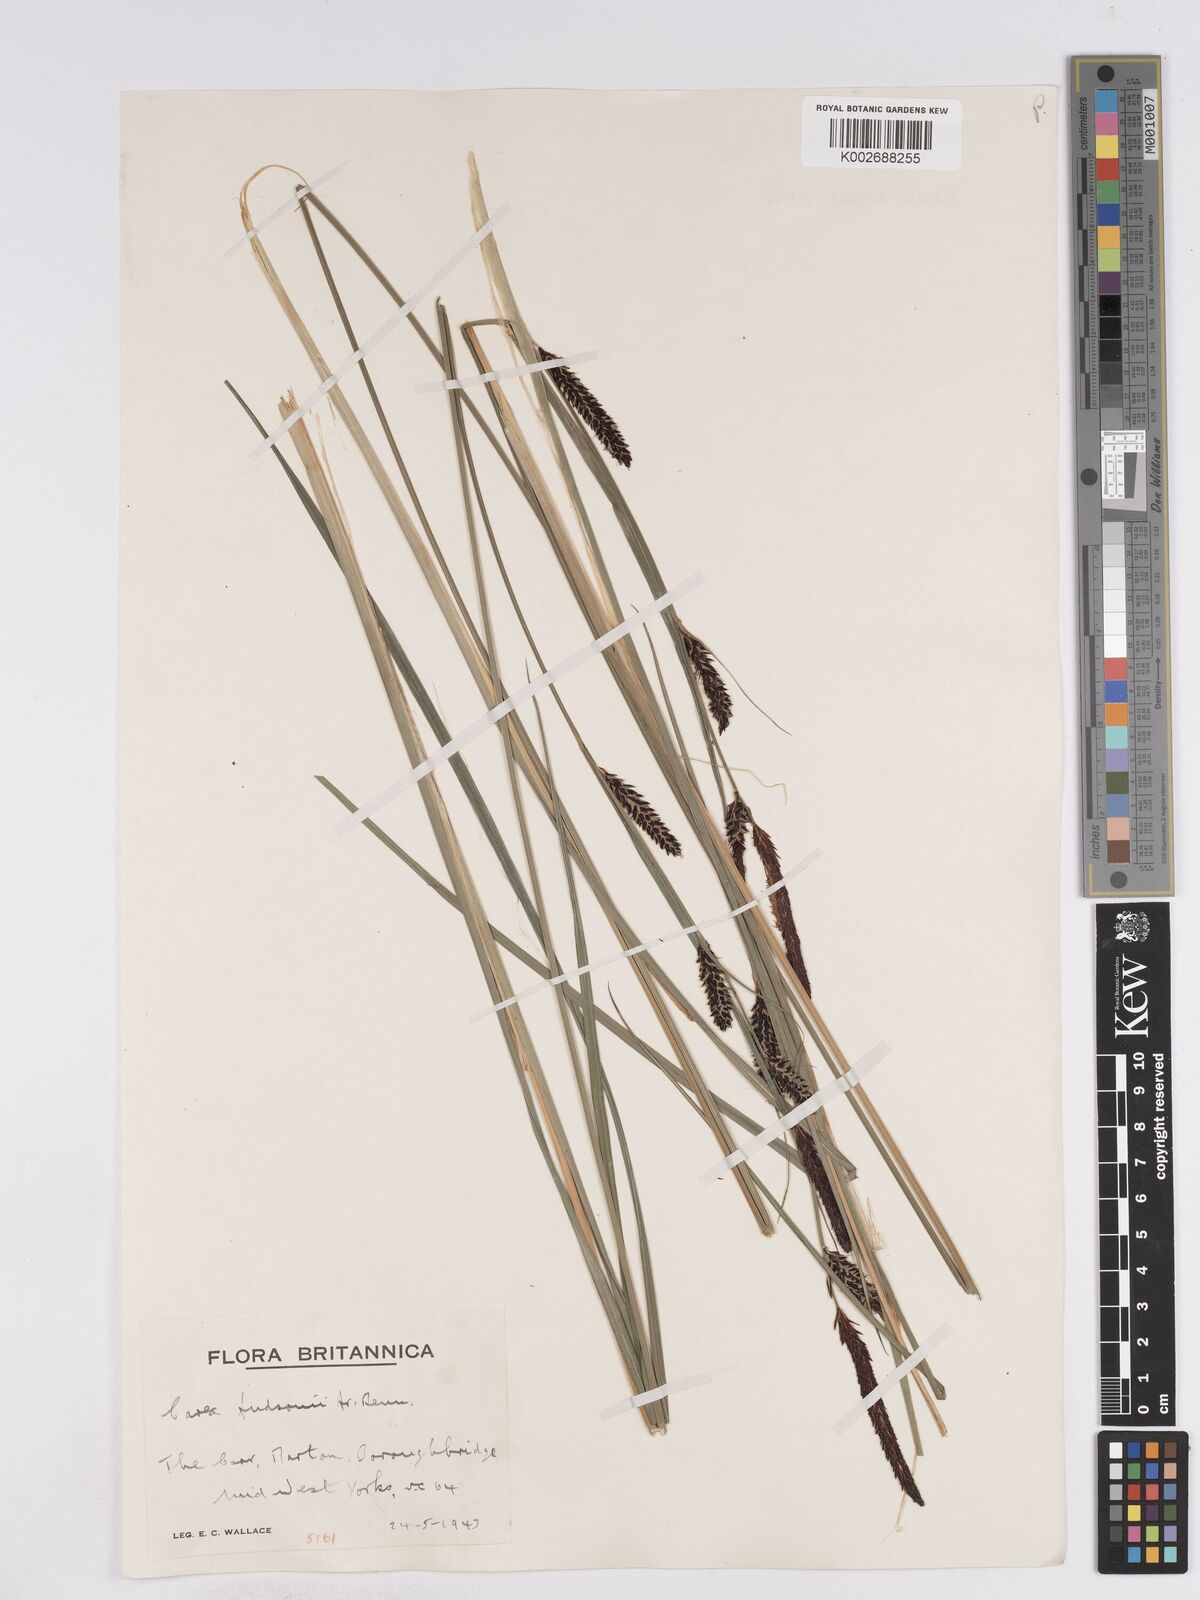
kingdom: Plantae
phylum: Tracheophyta
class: Liliopsida
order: Poales
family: Cyperaceae
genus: Carex
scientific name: Carex elata
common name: Tufted sedge
